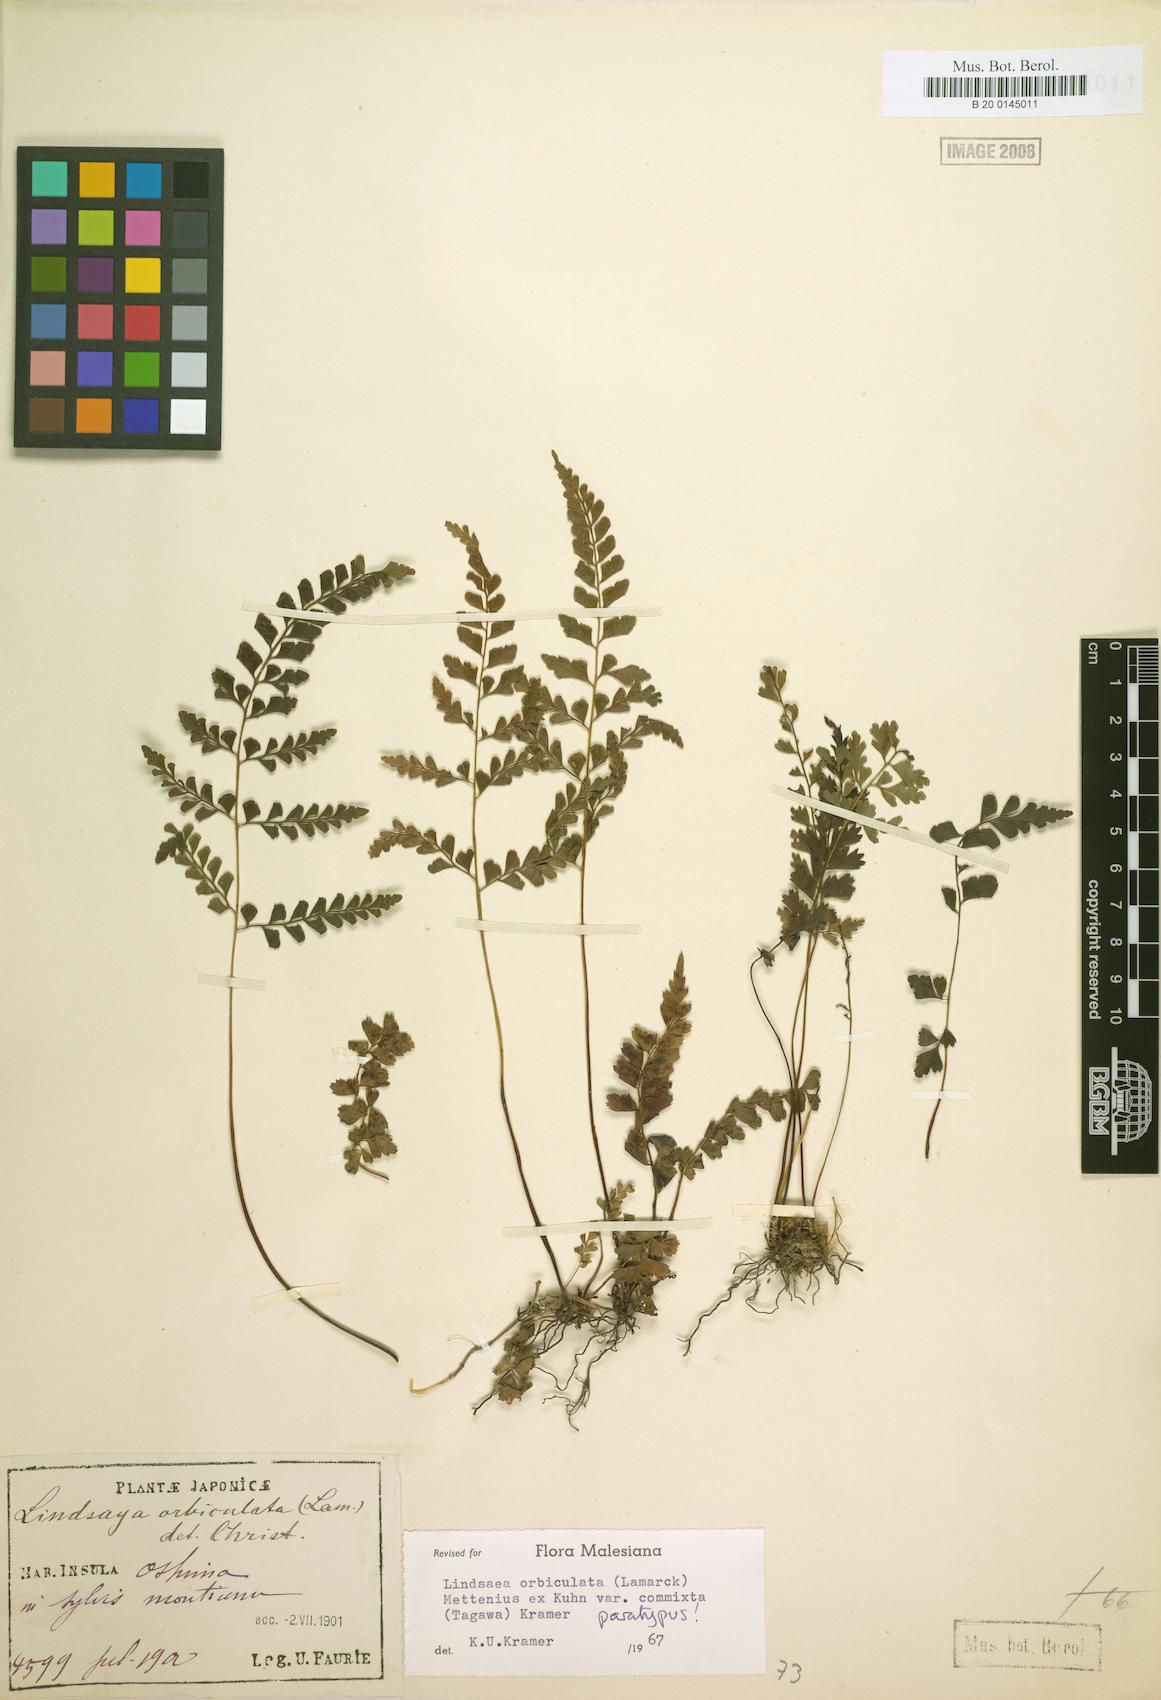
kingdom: Plantae
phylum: Tracheophyta
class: Polypodiopsida
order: Polypodiales
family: Lindsaeaceae
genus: Lindsaea
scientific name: Lindsaea bonii
